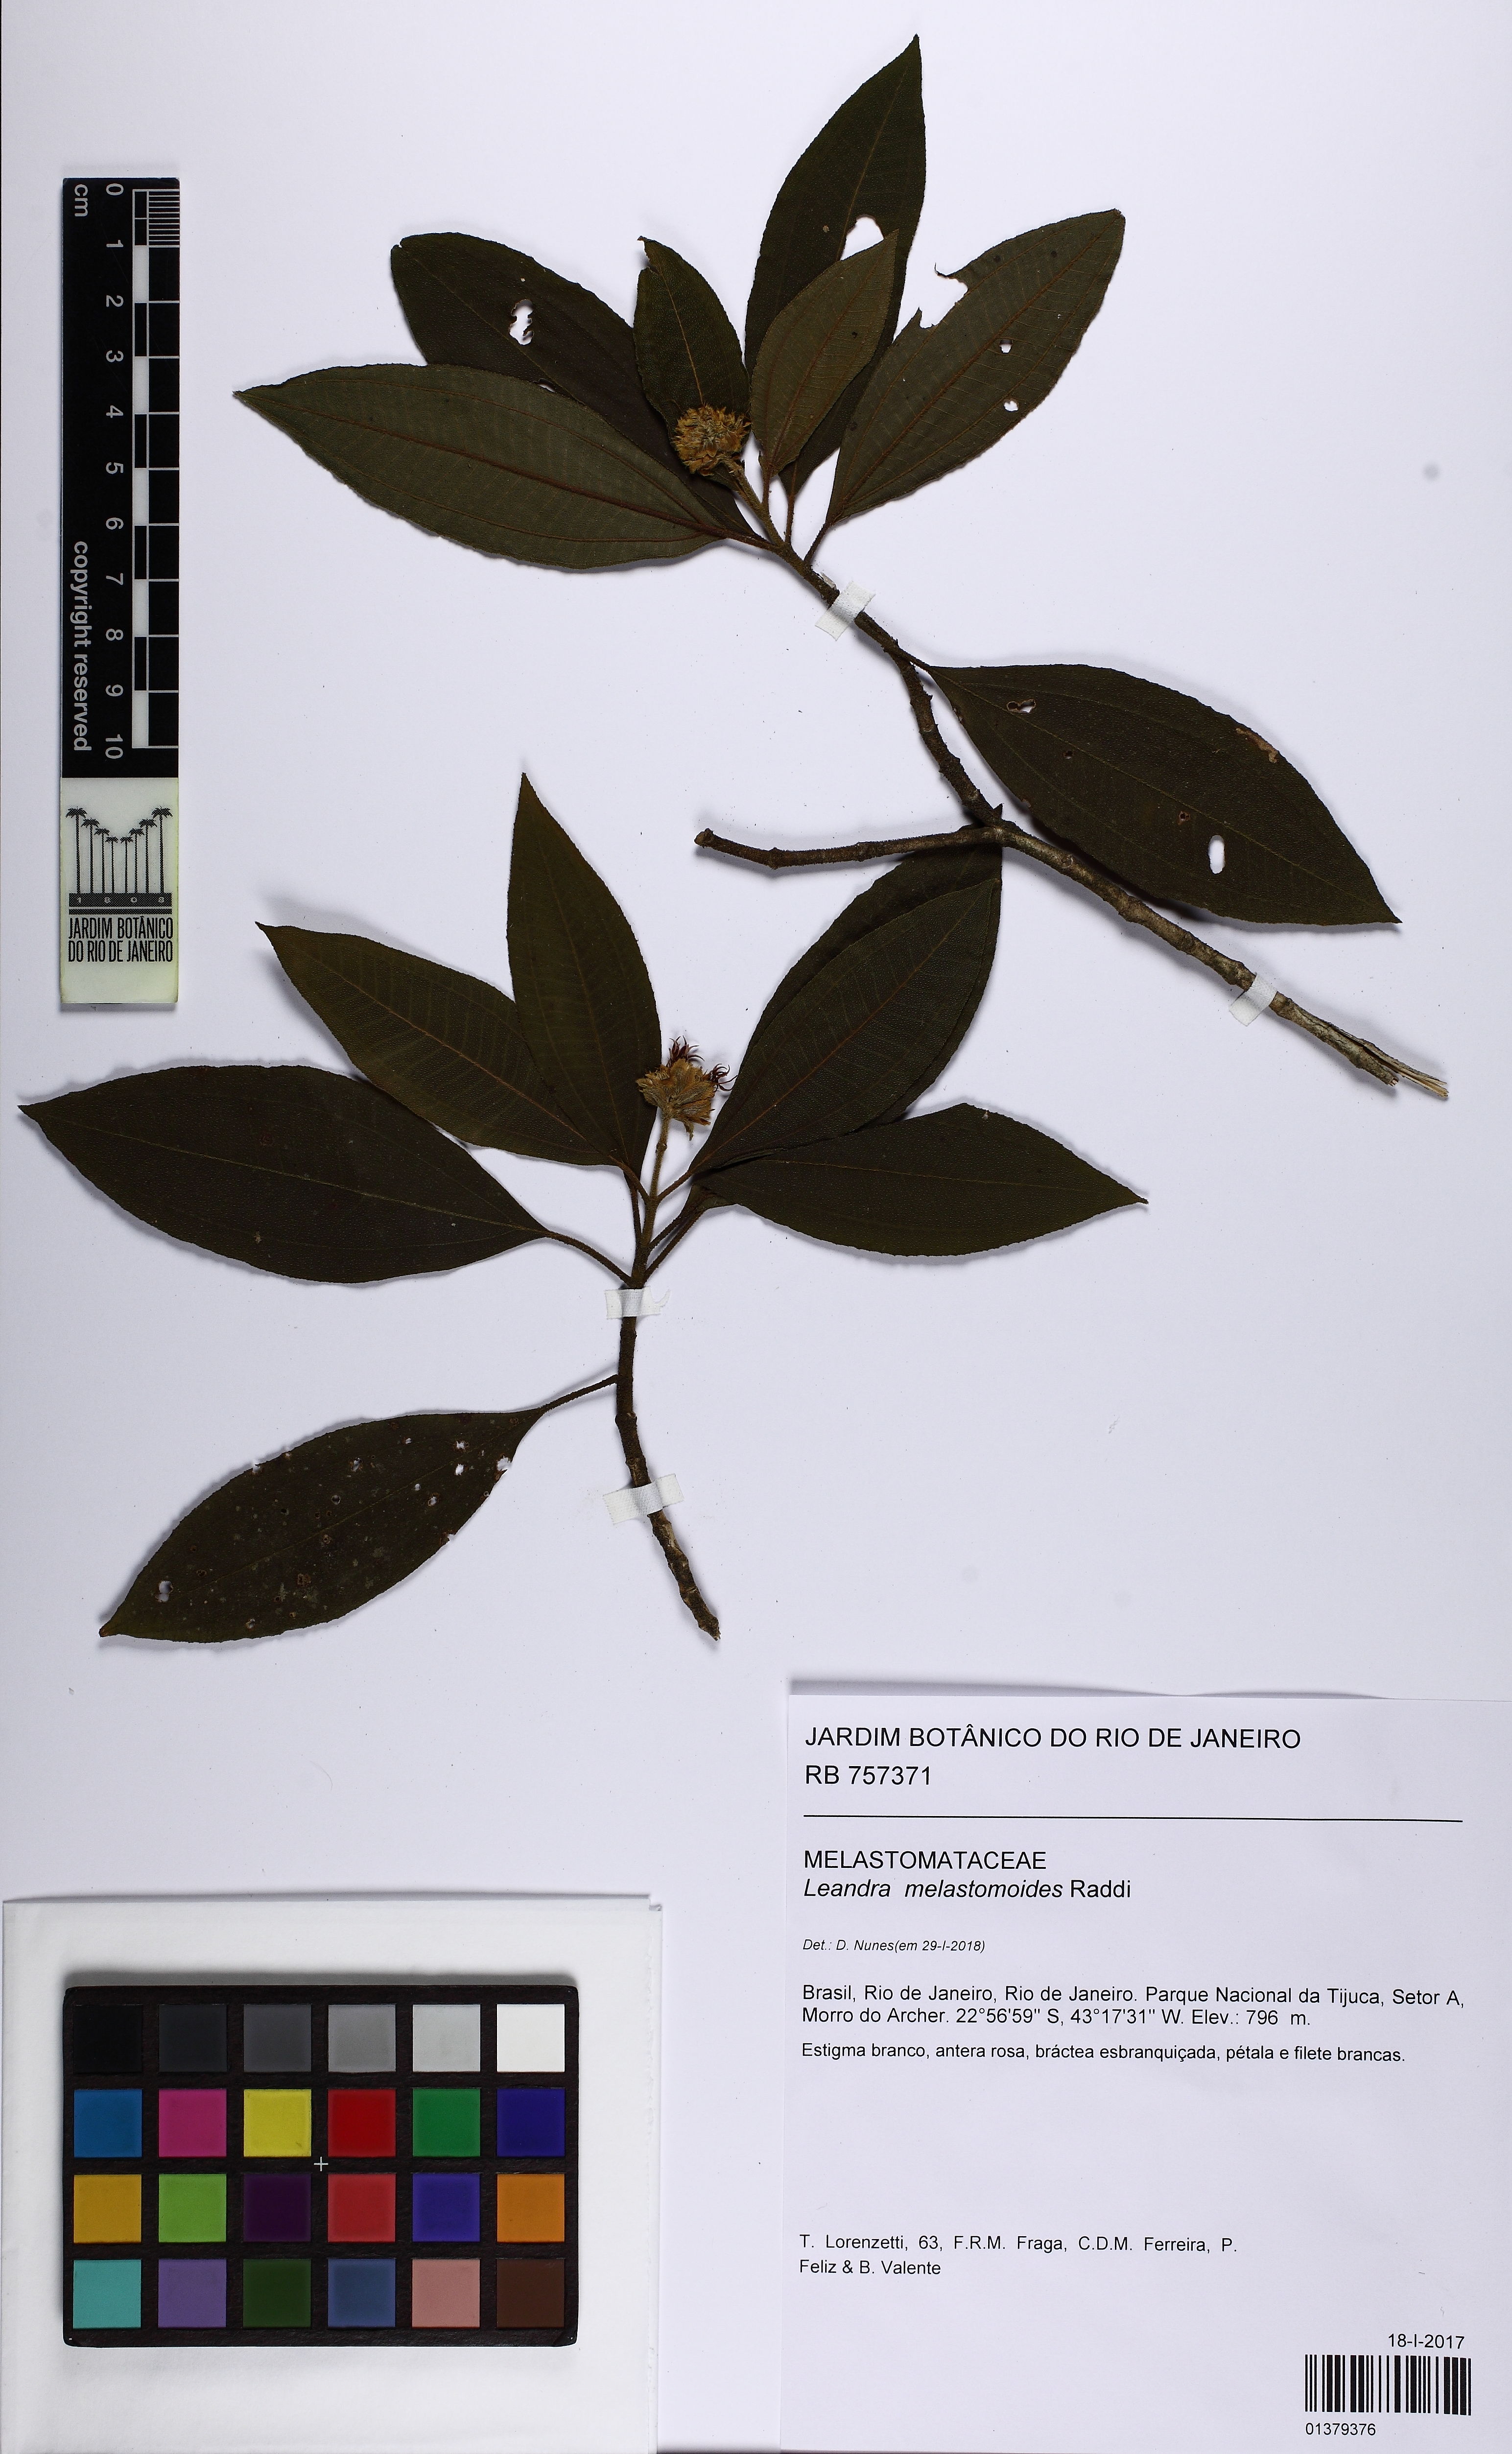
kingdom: Plantae
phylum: Tracheophyta
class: Magnoliopsida
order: Myrtales
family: Melastomataceae
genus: Miconia
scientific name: Miconia melastomoides
